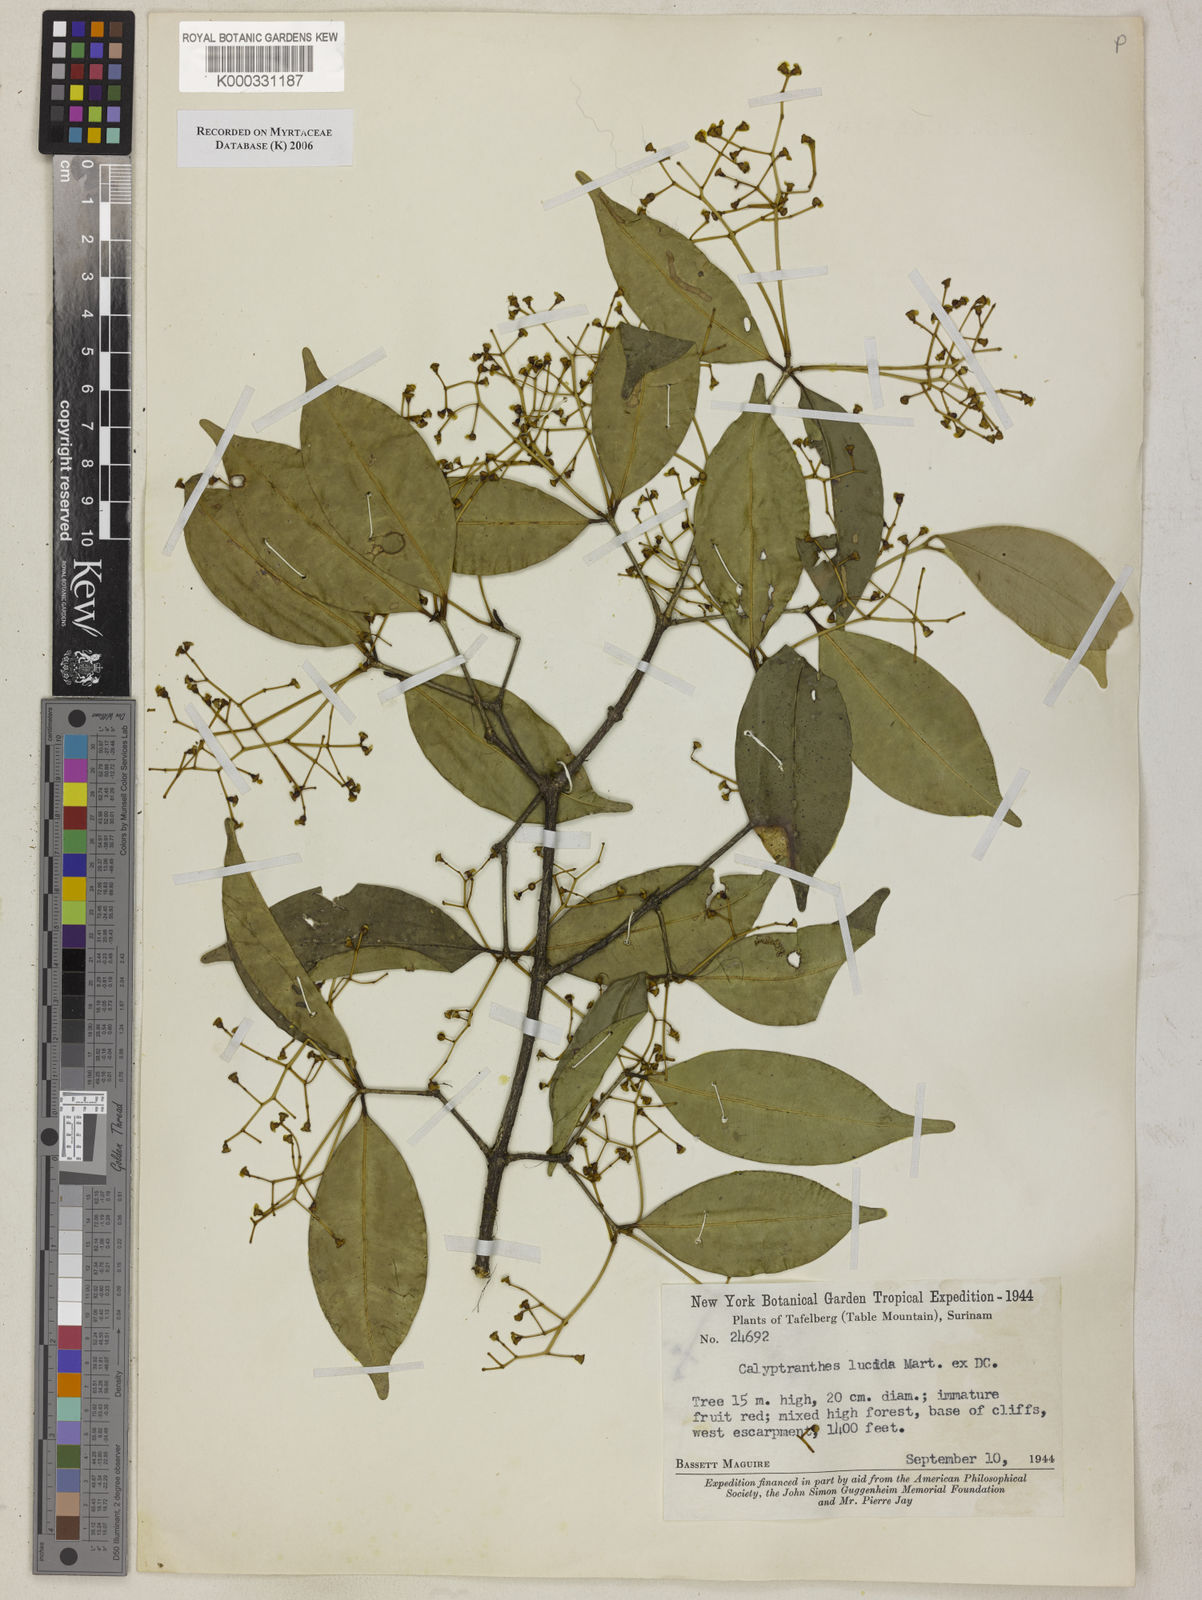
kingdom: Plantae
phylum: Tracheophyta
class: Magnoliopsida
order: Myrtales
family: Myrtaceae
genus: Myrcia
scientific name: Myrcia neolucida
